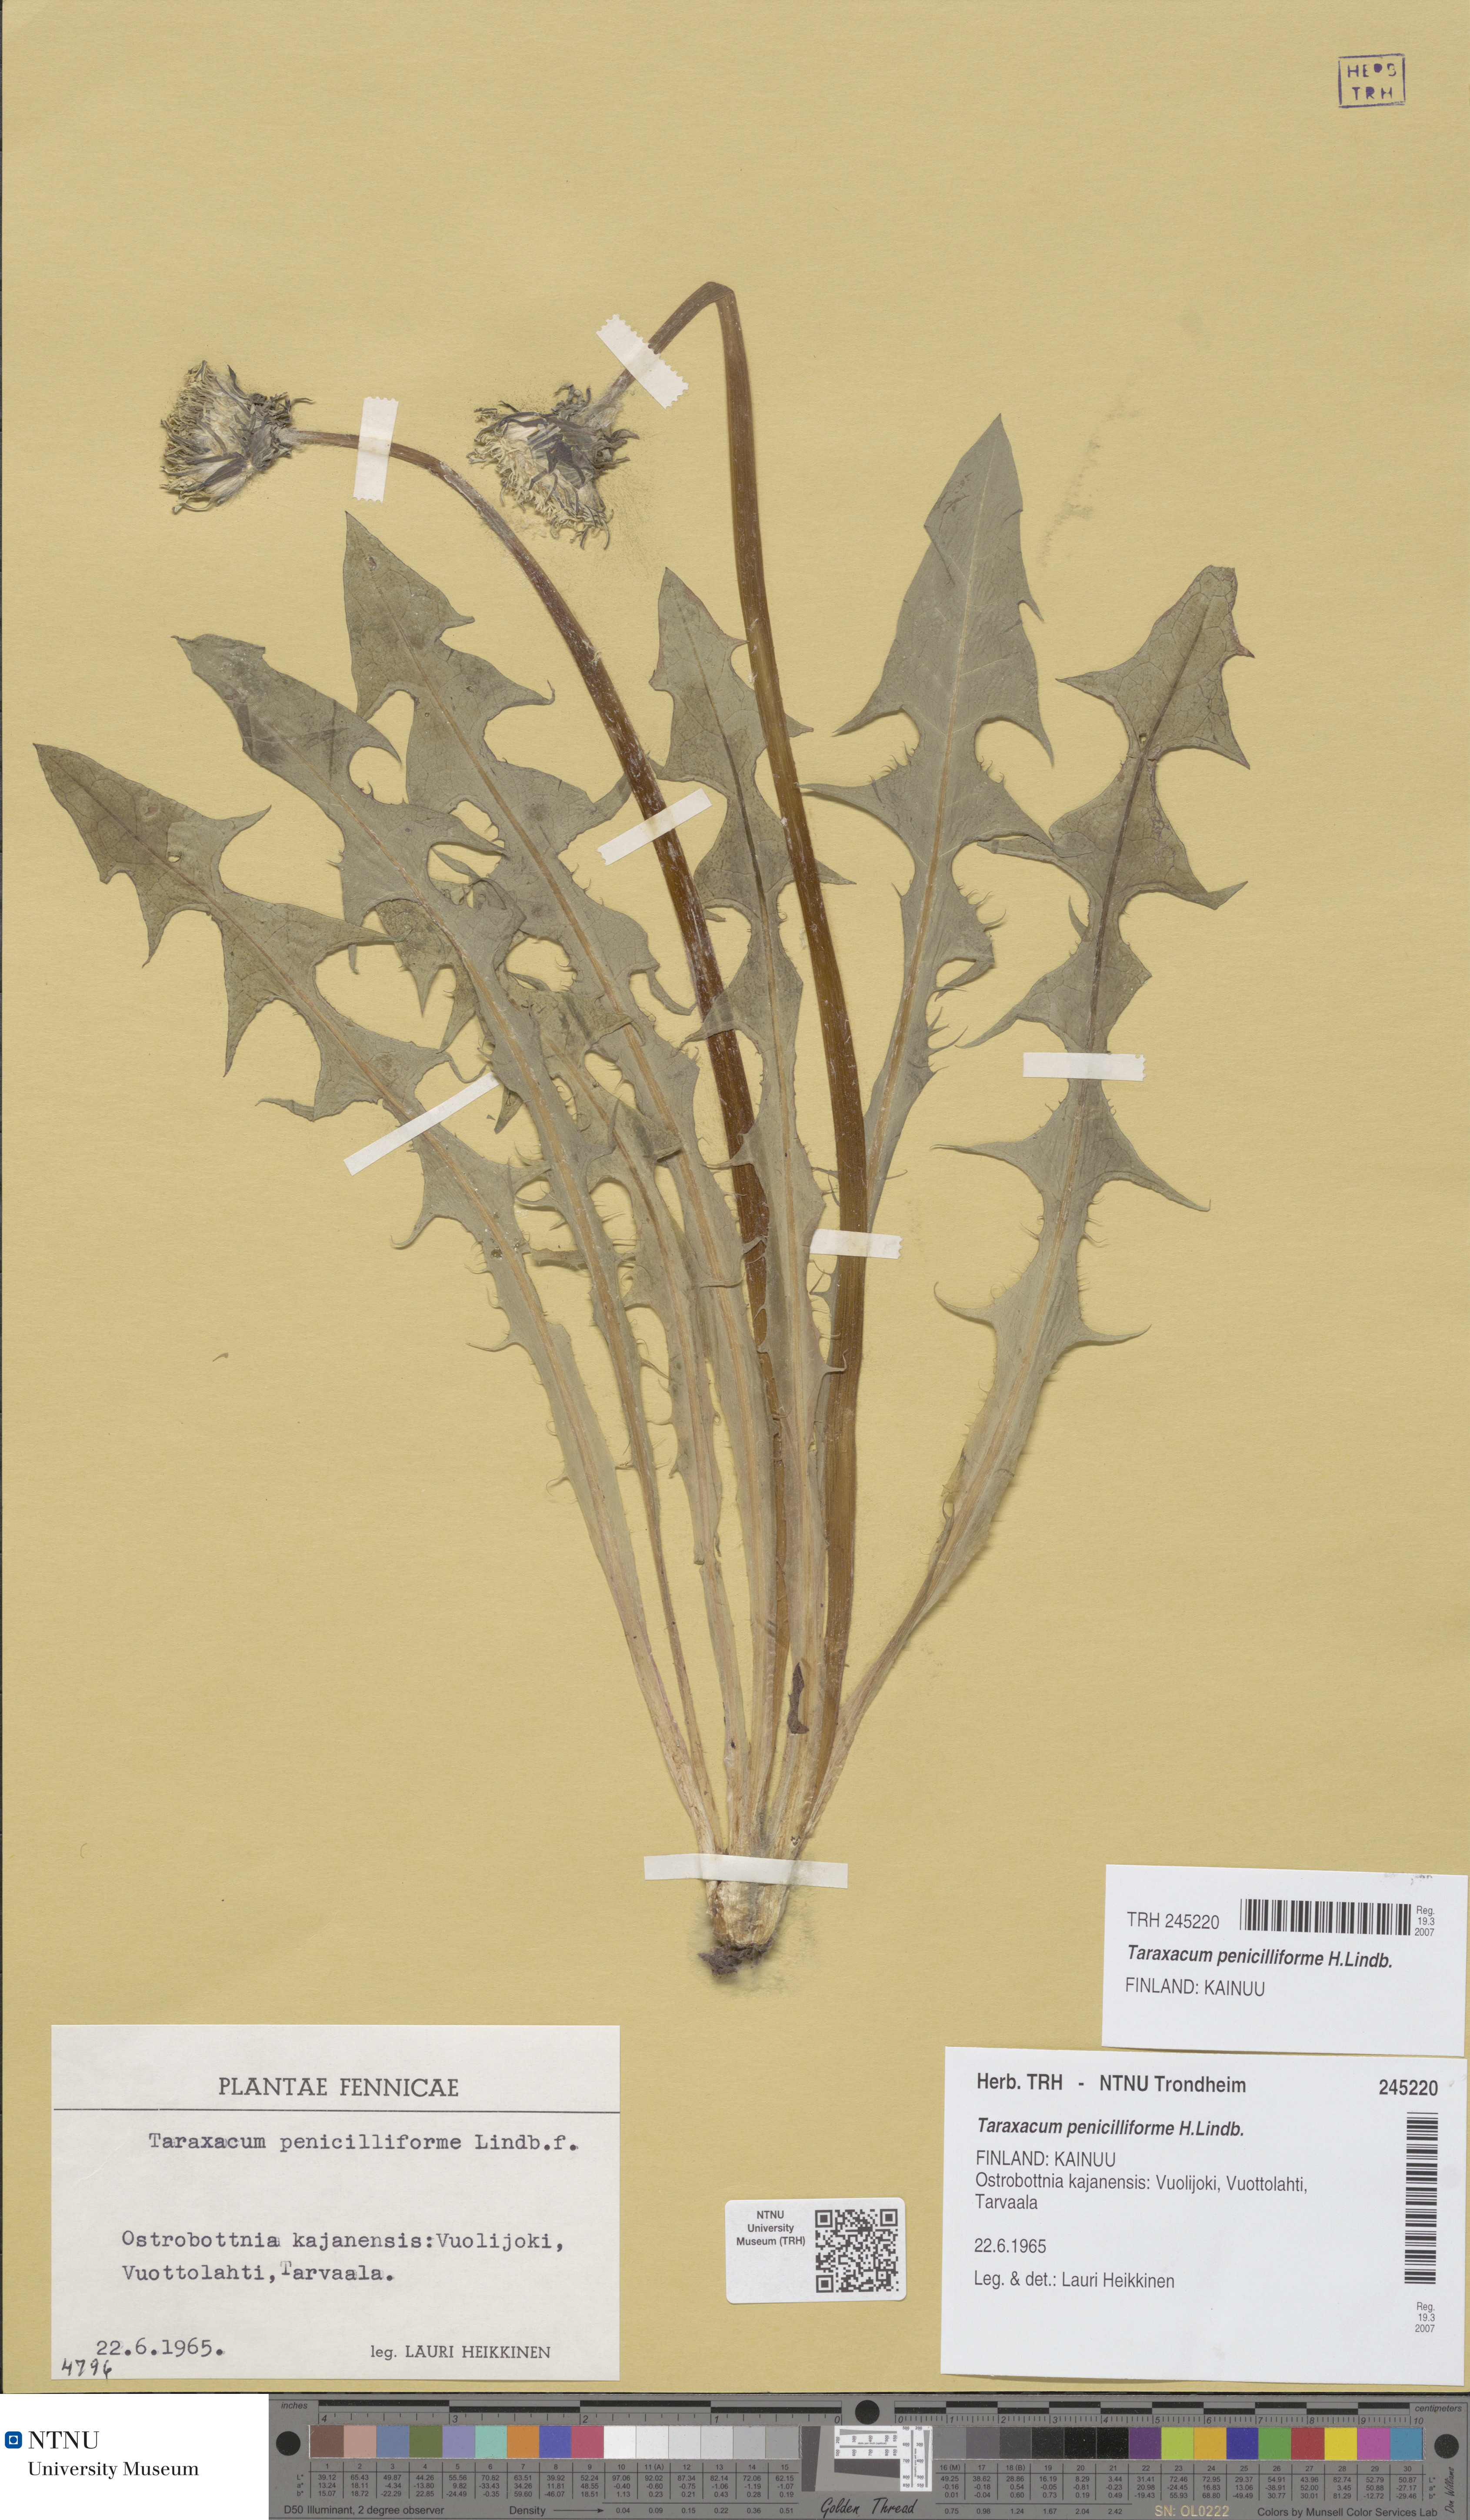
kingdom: Plantae
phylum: Tracheophyta
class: Magnoliopsida
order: Asterales
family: Asteraceae
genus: Taraxacum
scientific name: Taraxacum penicilliforme
